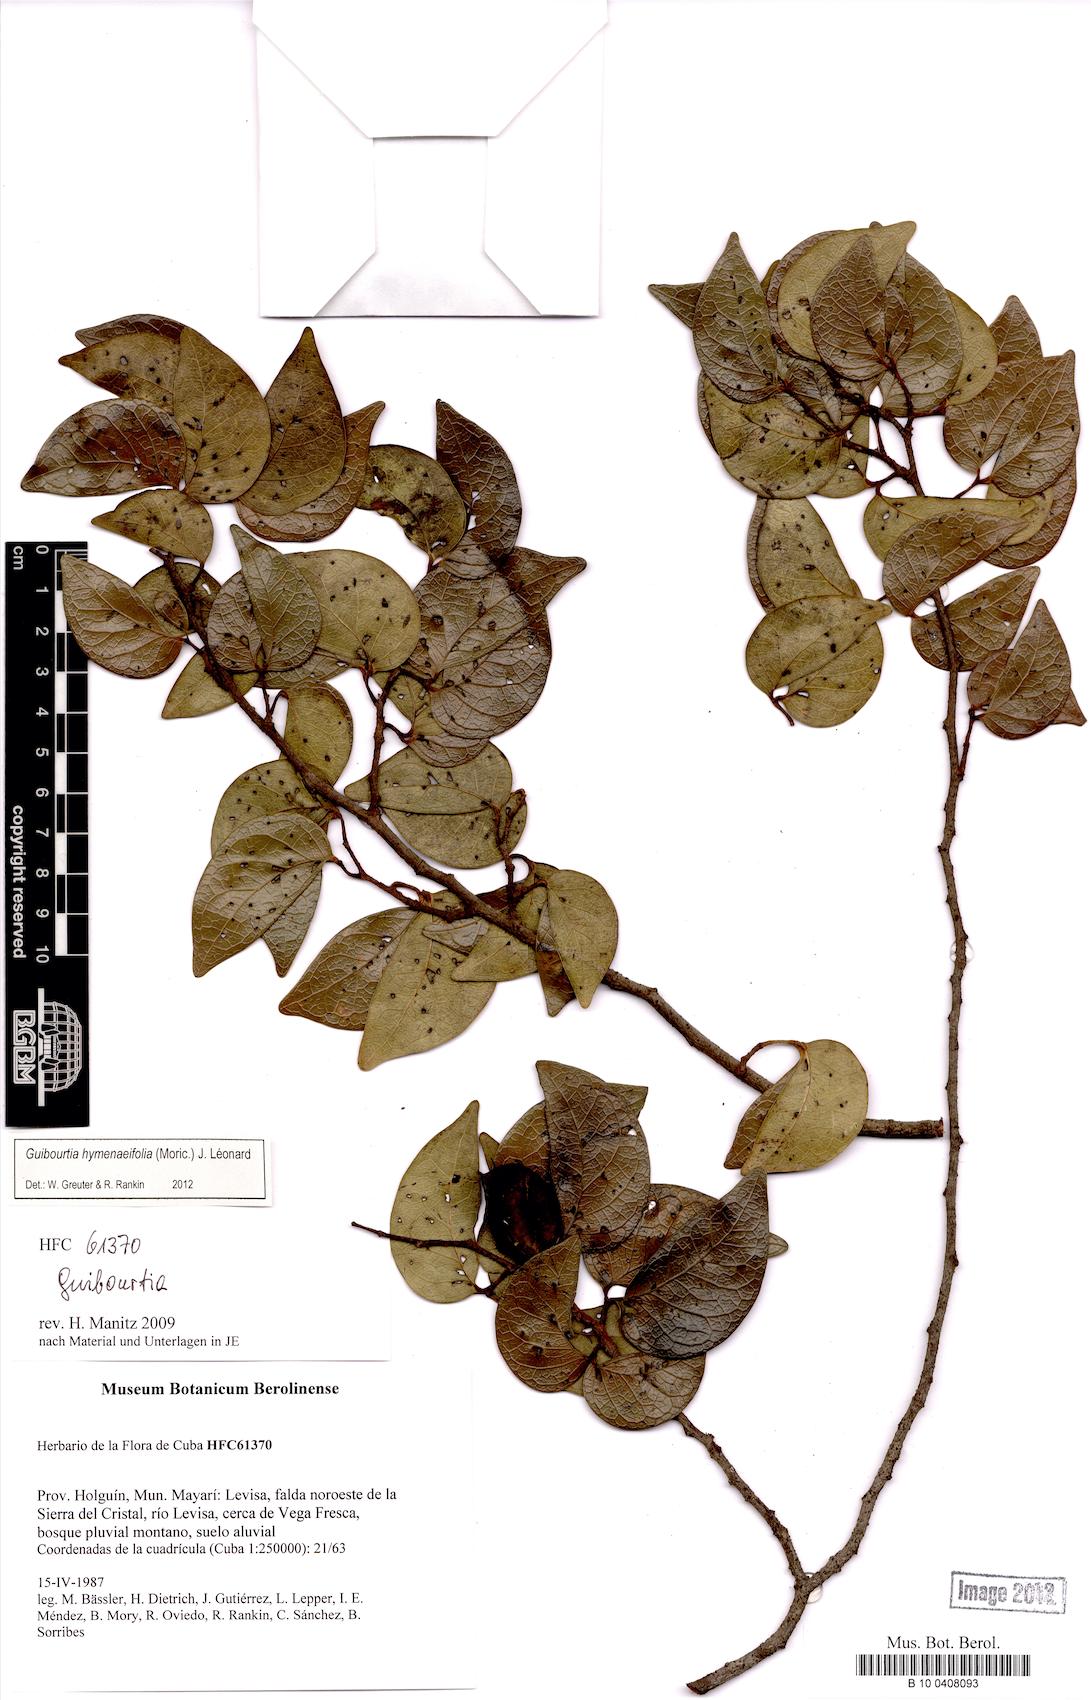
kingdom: Plantae
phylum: Tracheophyta
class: Magnoliopsida
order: Fabales
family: Fabaceae
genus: Guibourtia
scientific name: Guibourtia hymenaefolia
